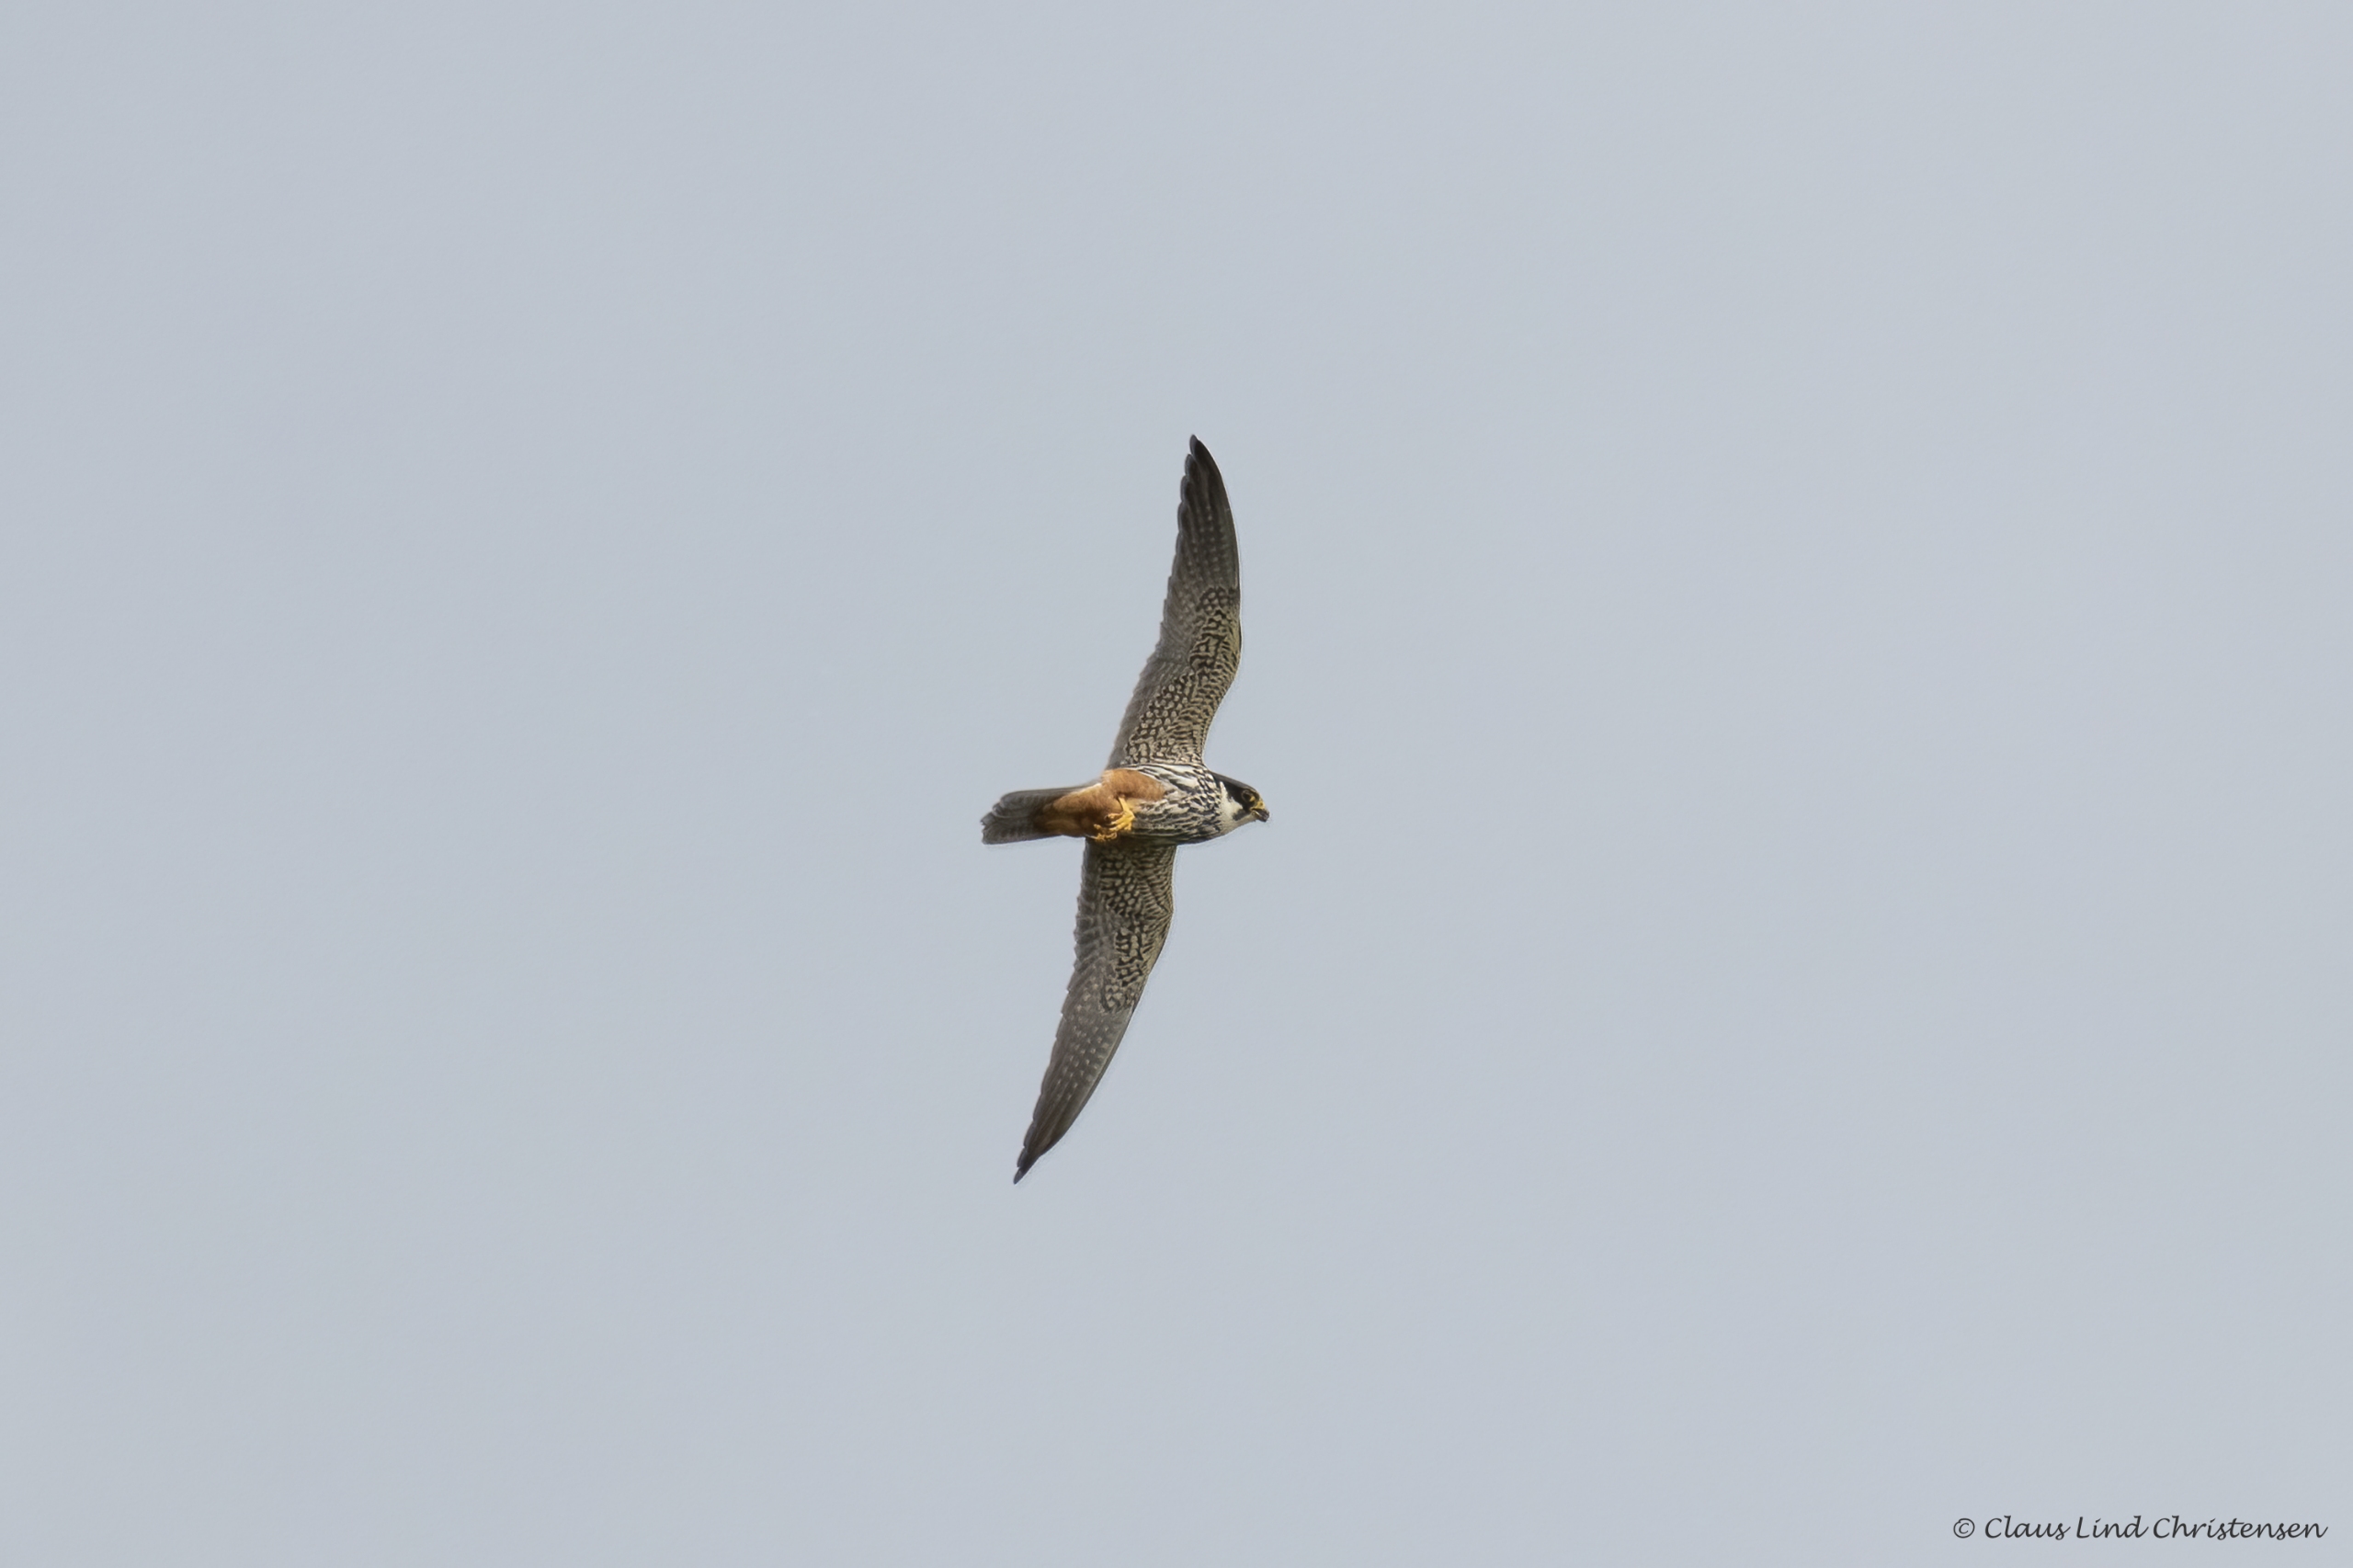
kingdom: Animalia
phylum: Chordata
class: Aves
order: Falconiformes
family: Falconidae
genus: Falco
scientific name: Falco subbuteo
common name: Lærkefalk
